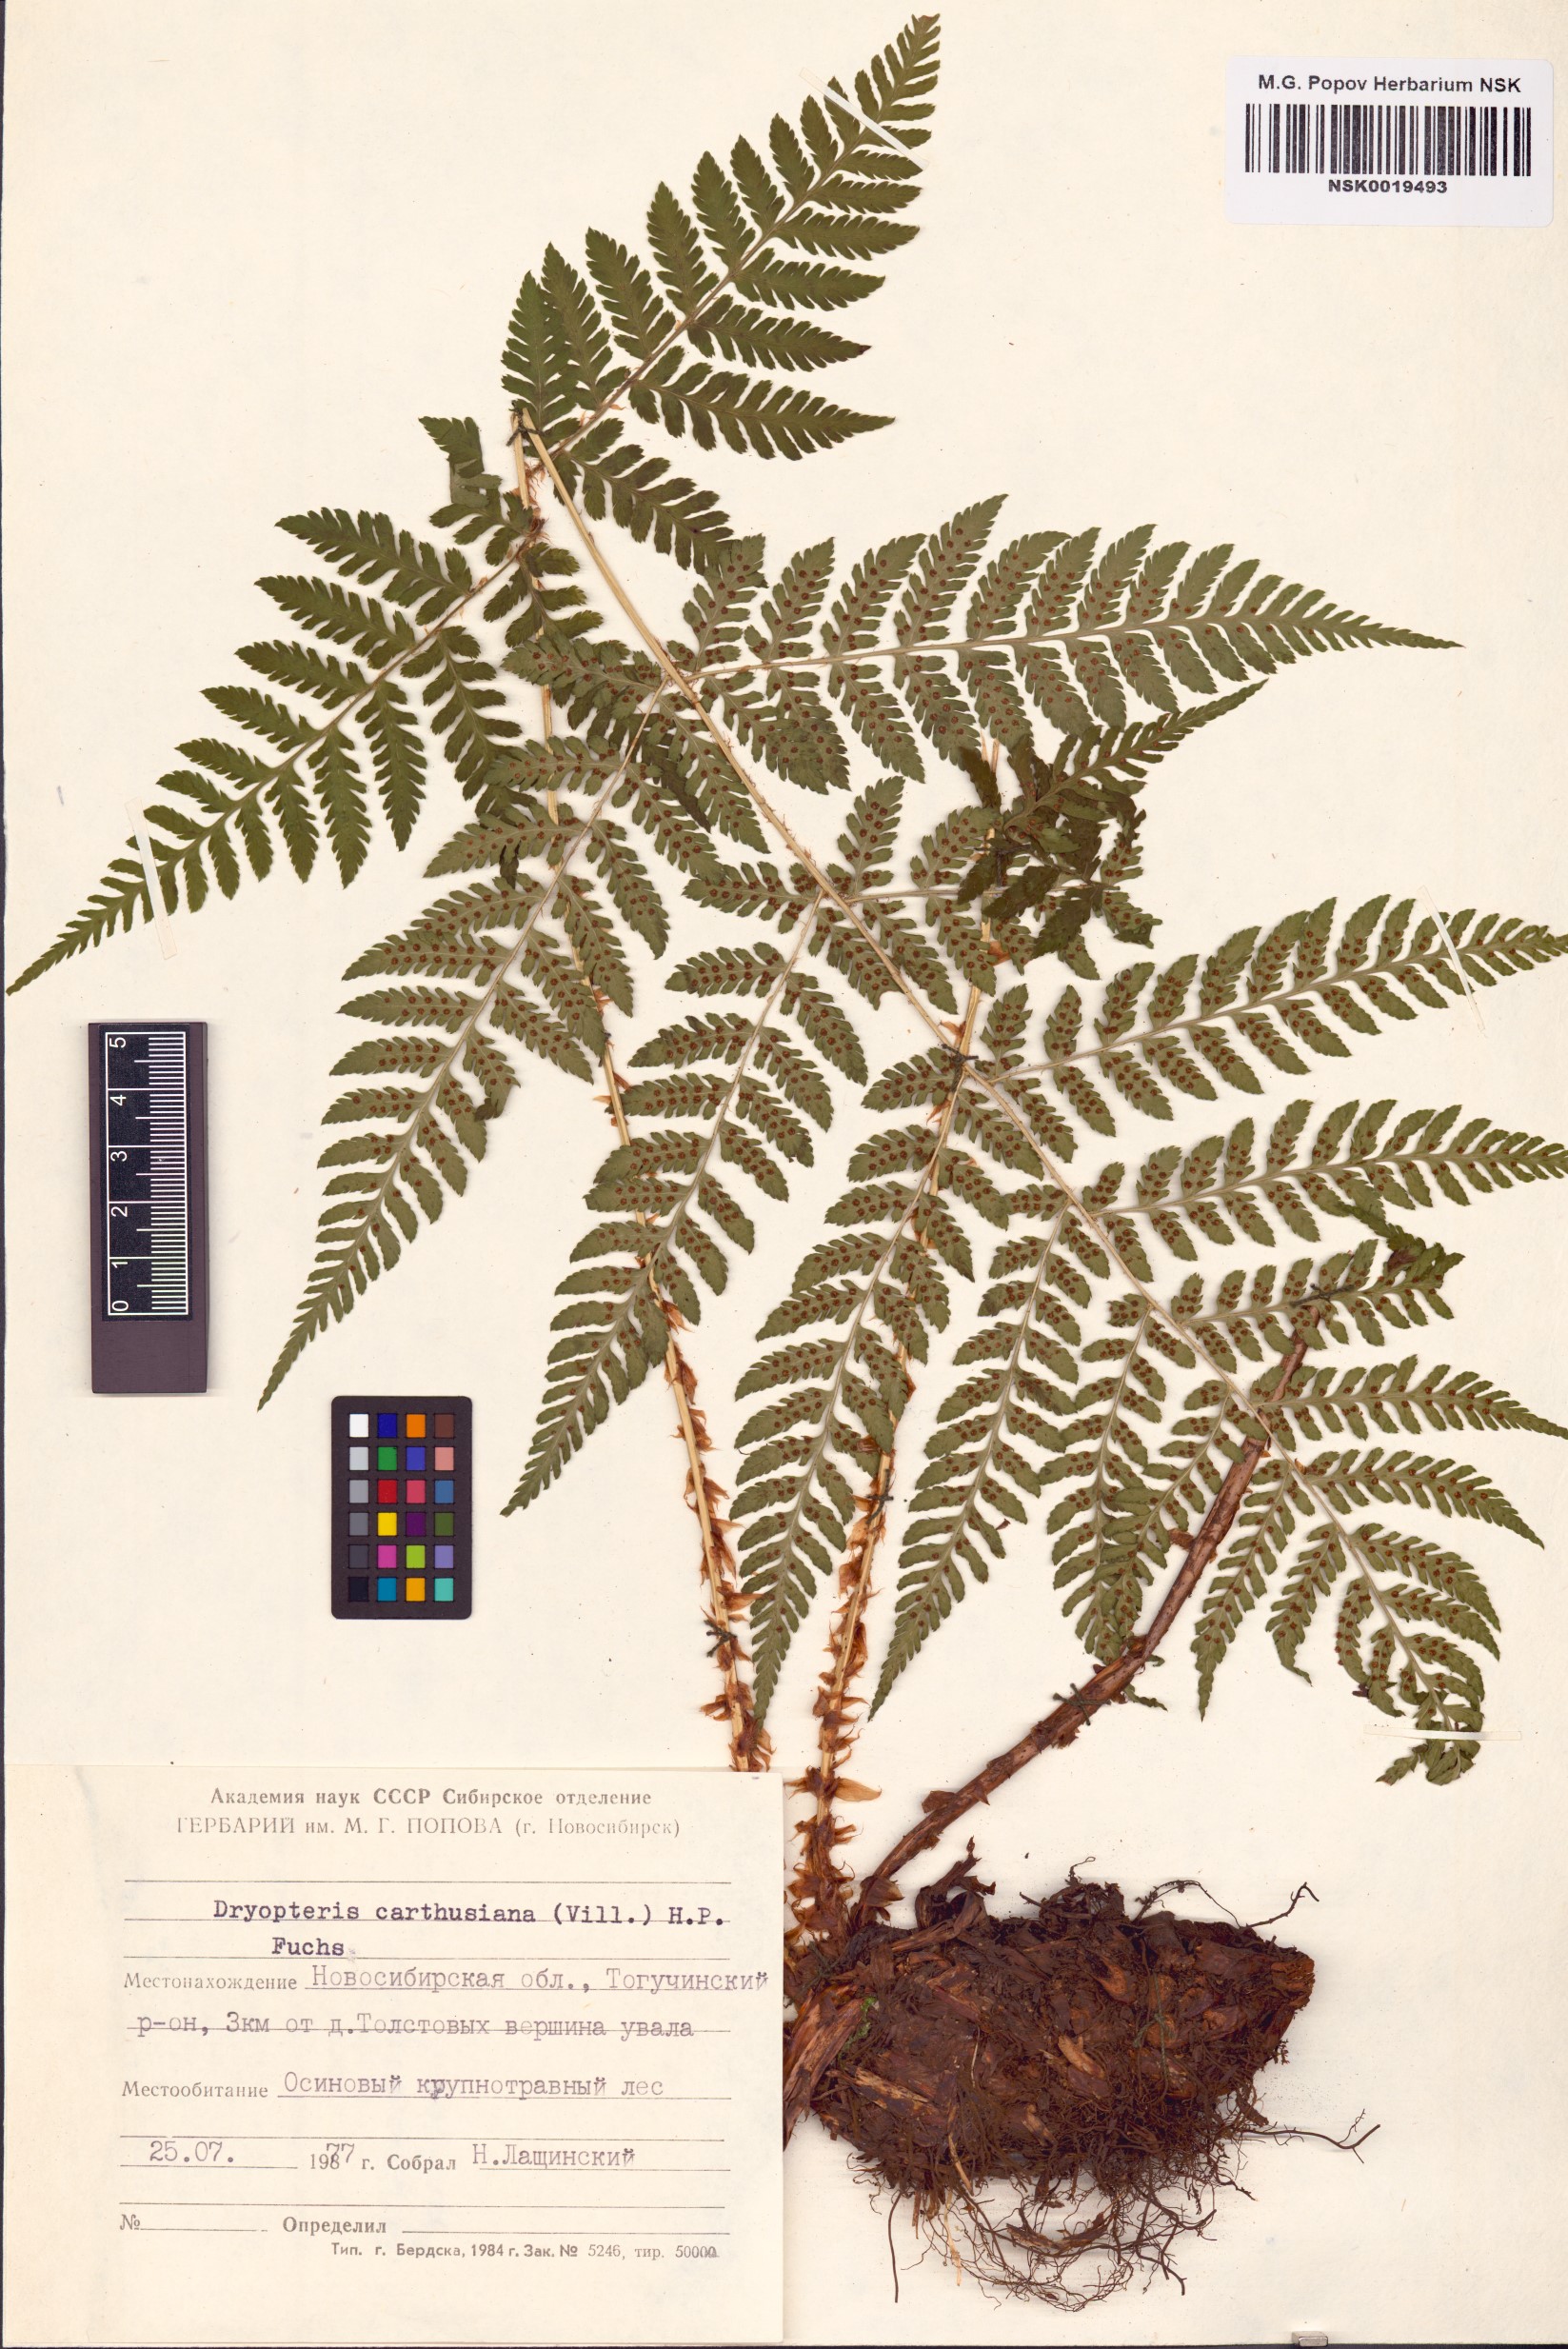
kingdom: Plantae
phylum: Tracheophyta
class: Polypodiopsida
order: Polypodiales
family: Dryopteridaceae
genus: Dryopteris
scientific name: Dryopteris carthusiana
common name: Narrow buckler-fern
